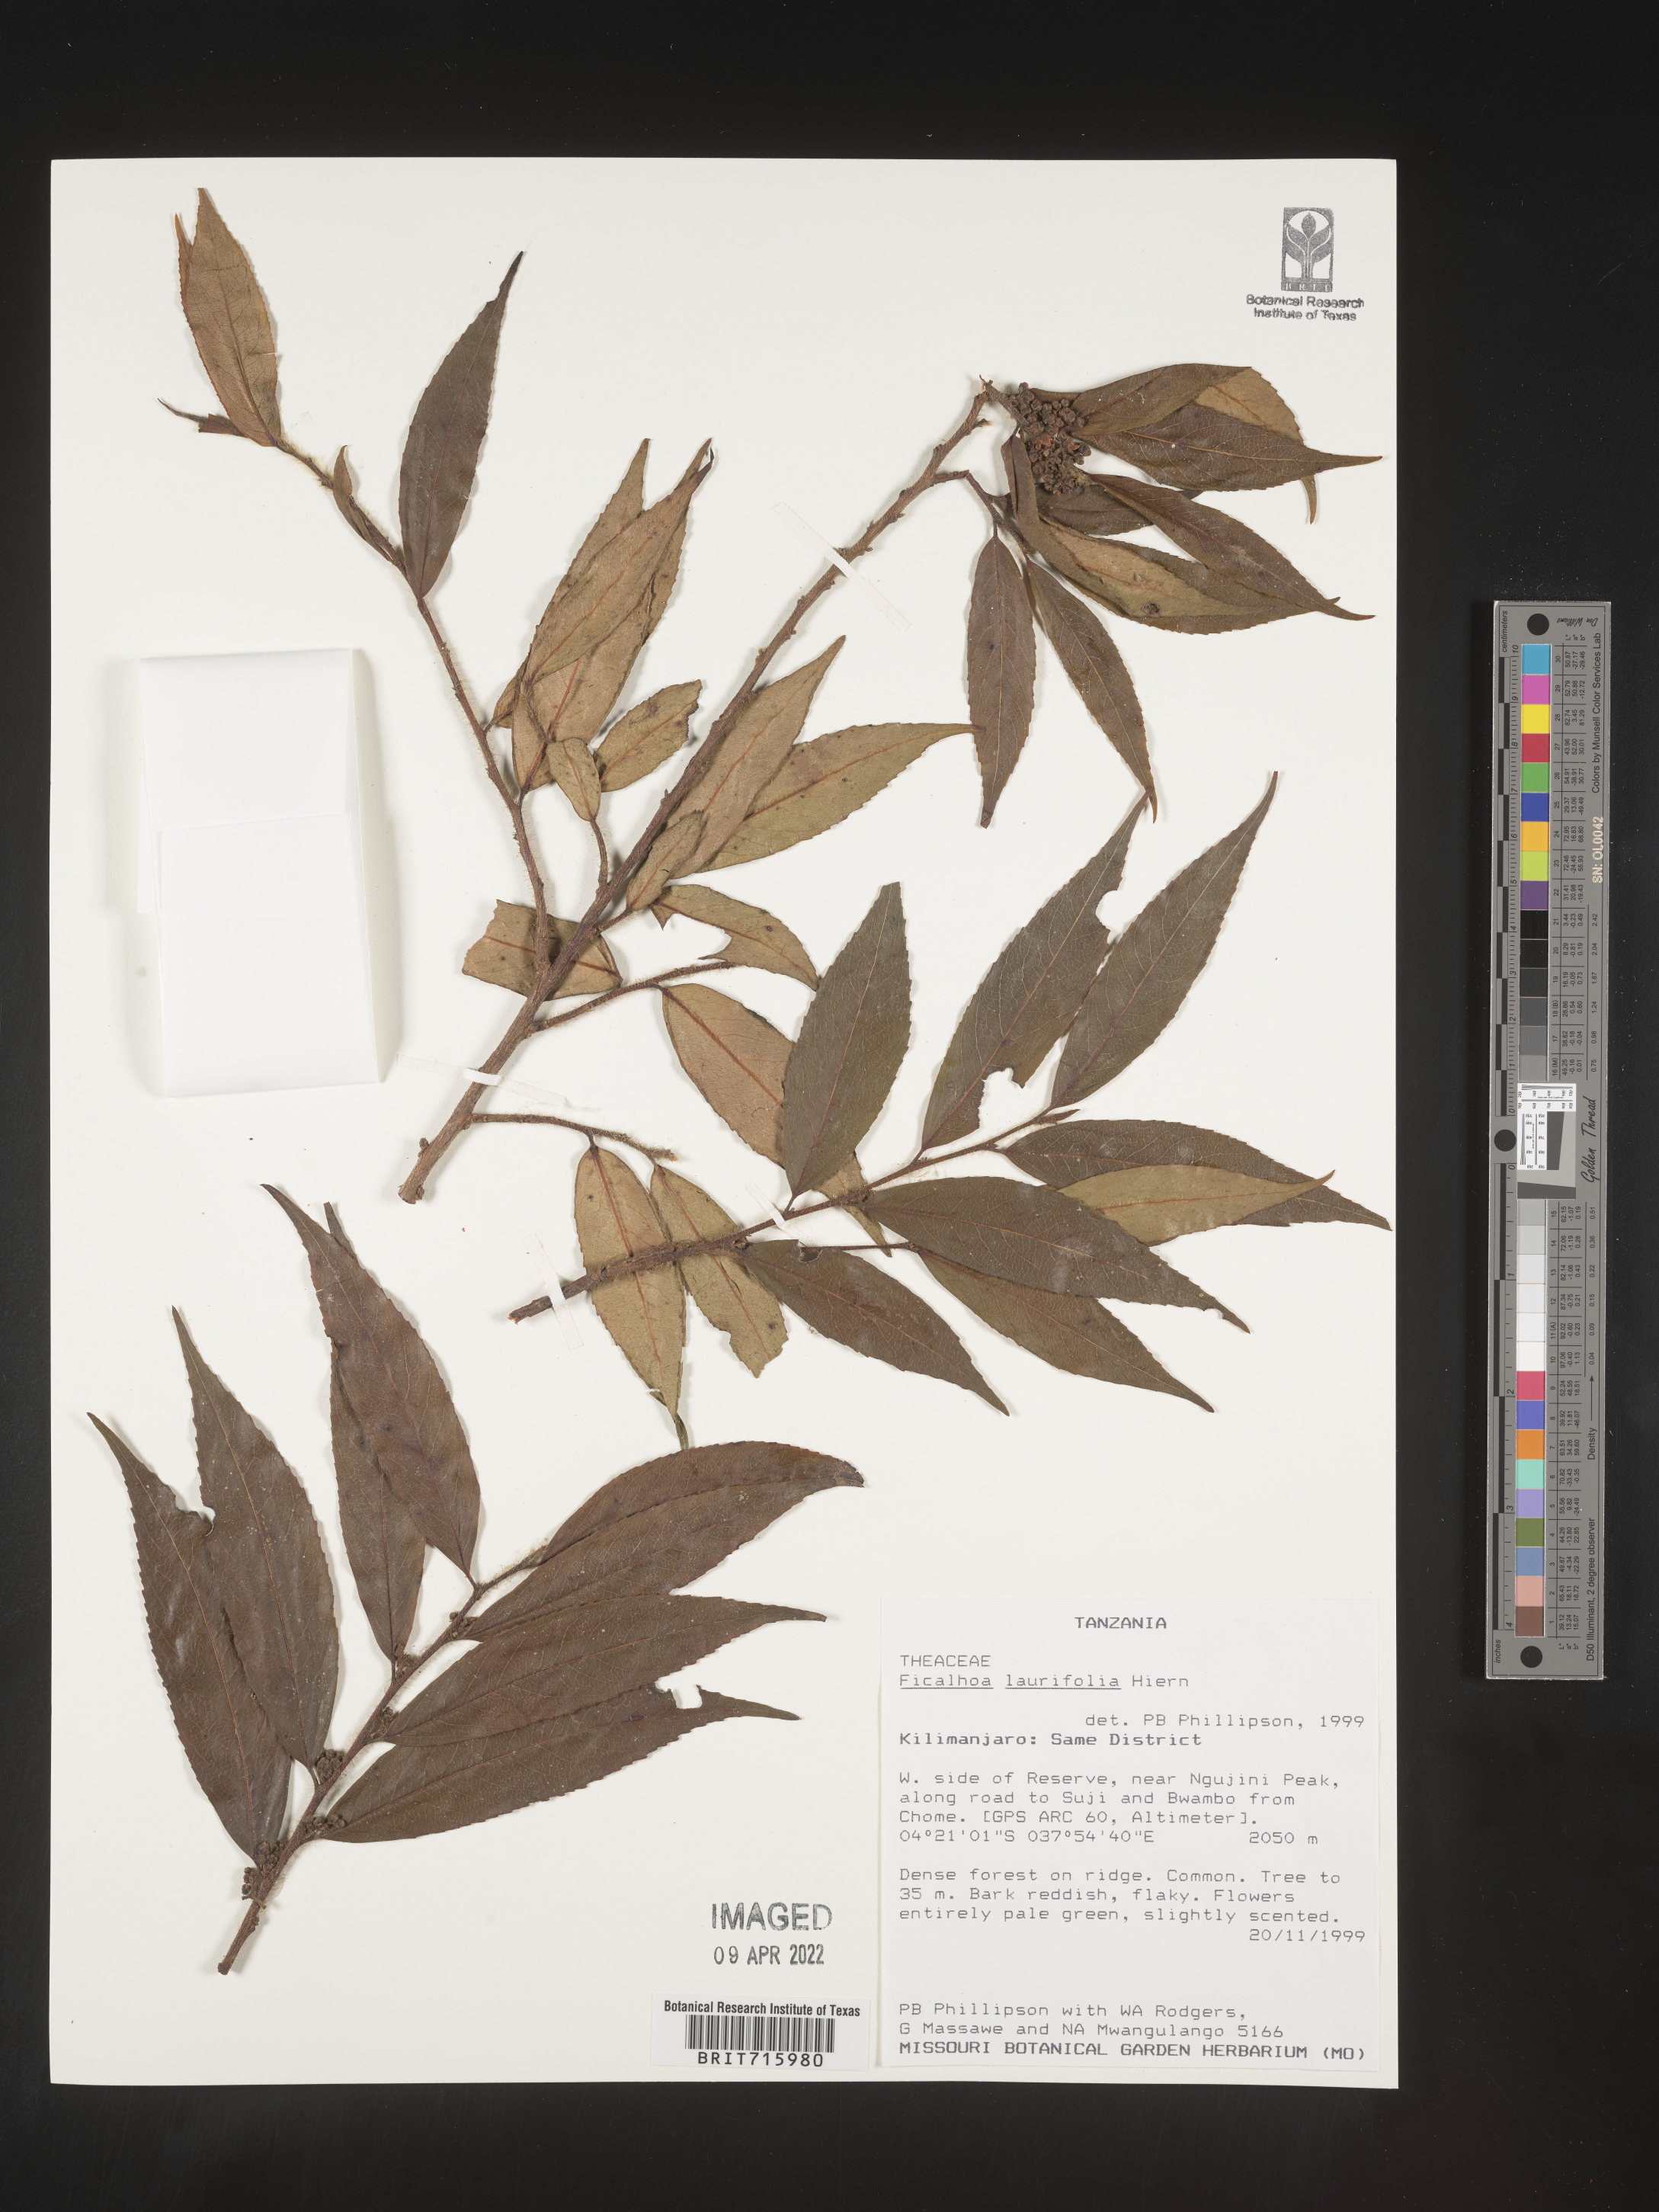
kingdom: Plantae
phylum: Tracheophyta
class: Magnoliopsida
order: Ericales
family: Sladeniaceae
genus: Ficalhoa
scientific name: Ficalhoa
